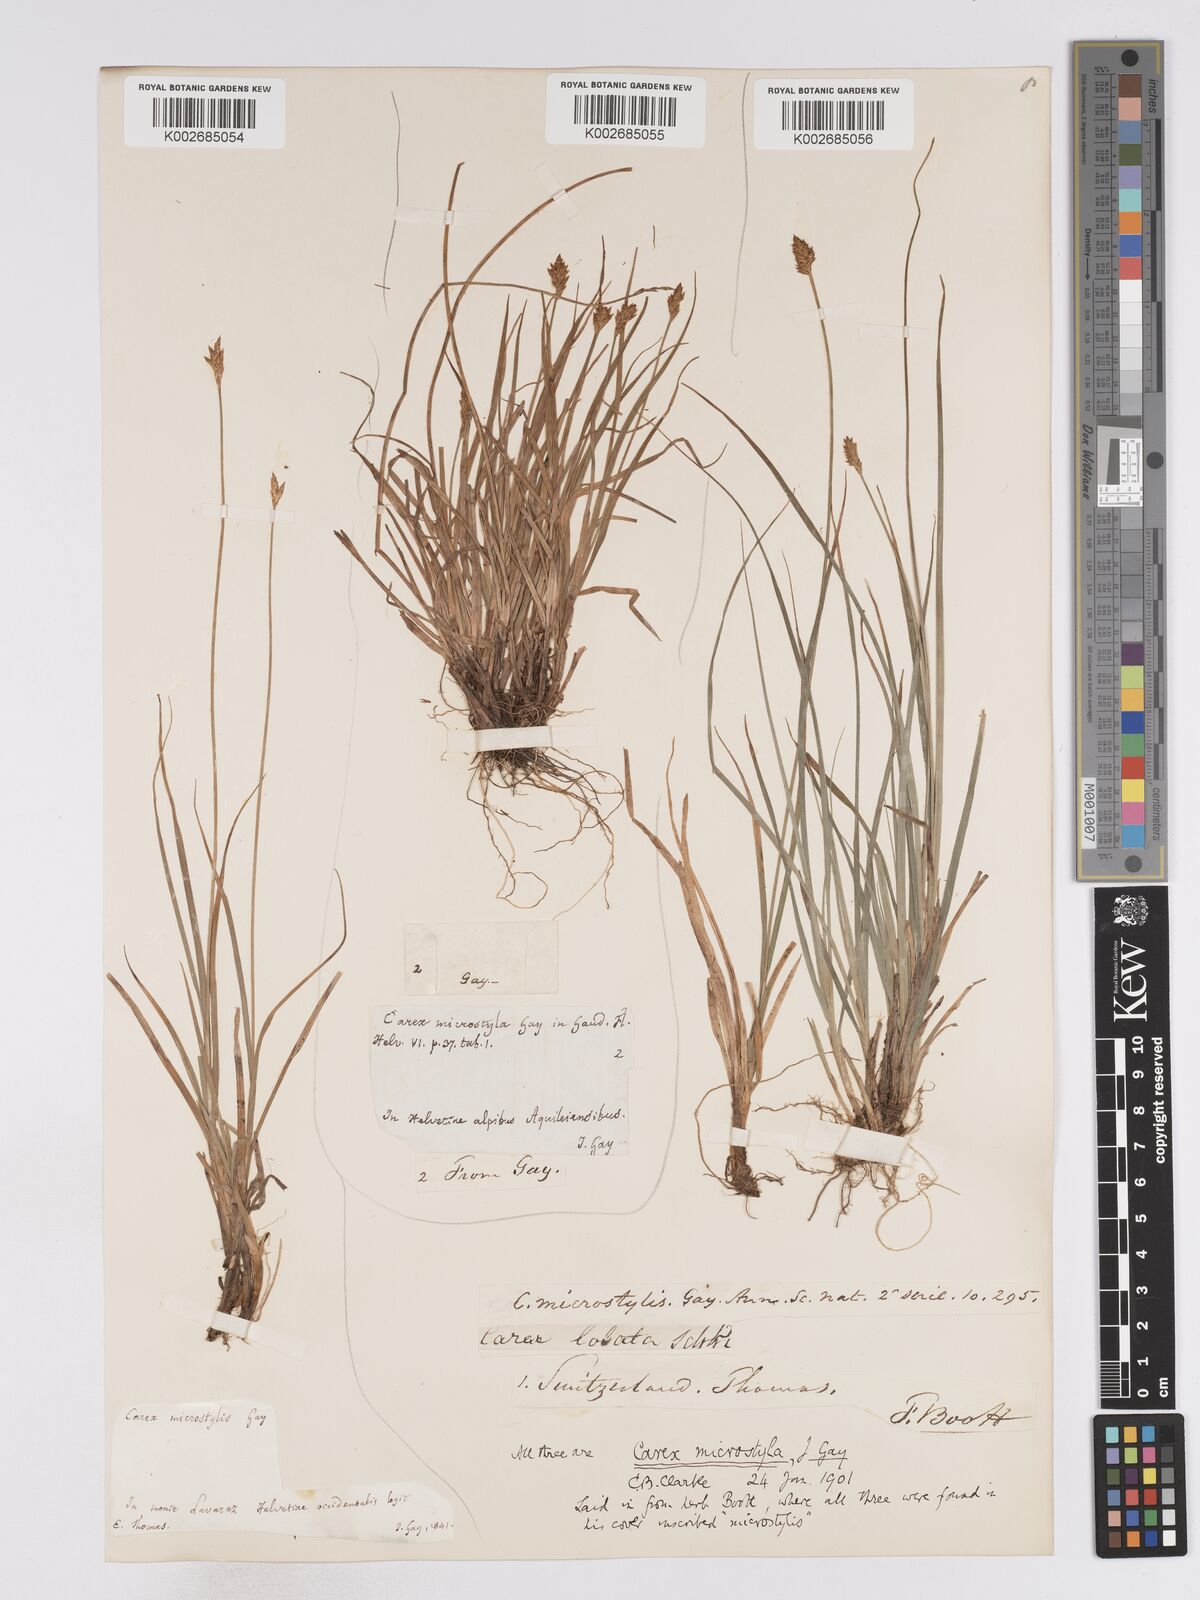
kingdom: Plantae
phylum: Tracheophyta
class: Liliopsida
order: Poales
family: Cyperaceae
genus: Carex
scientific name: Carex microstyla
